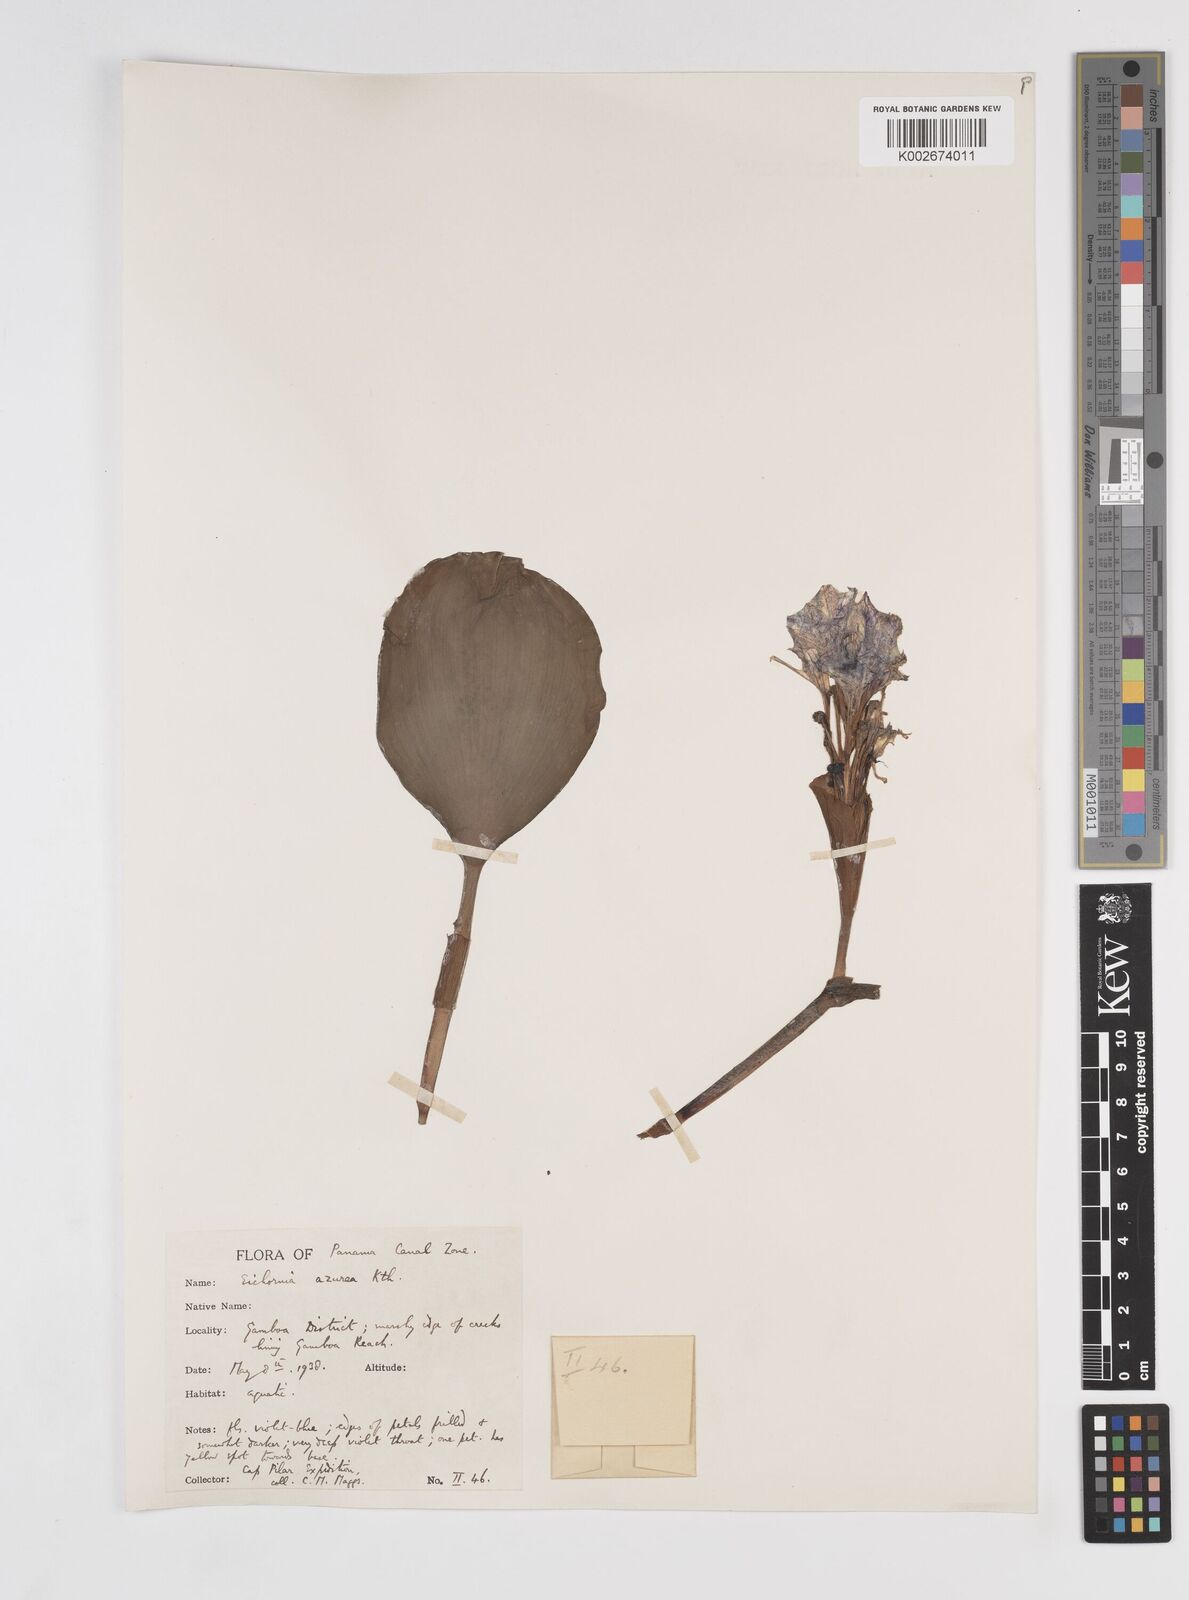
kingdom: Plantae
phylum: Tracheophyta
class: Liliopsida
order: Commelinales
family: Pontederiaceae
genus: Pontederia
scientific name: Pontederia azurea
